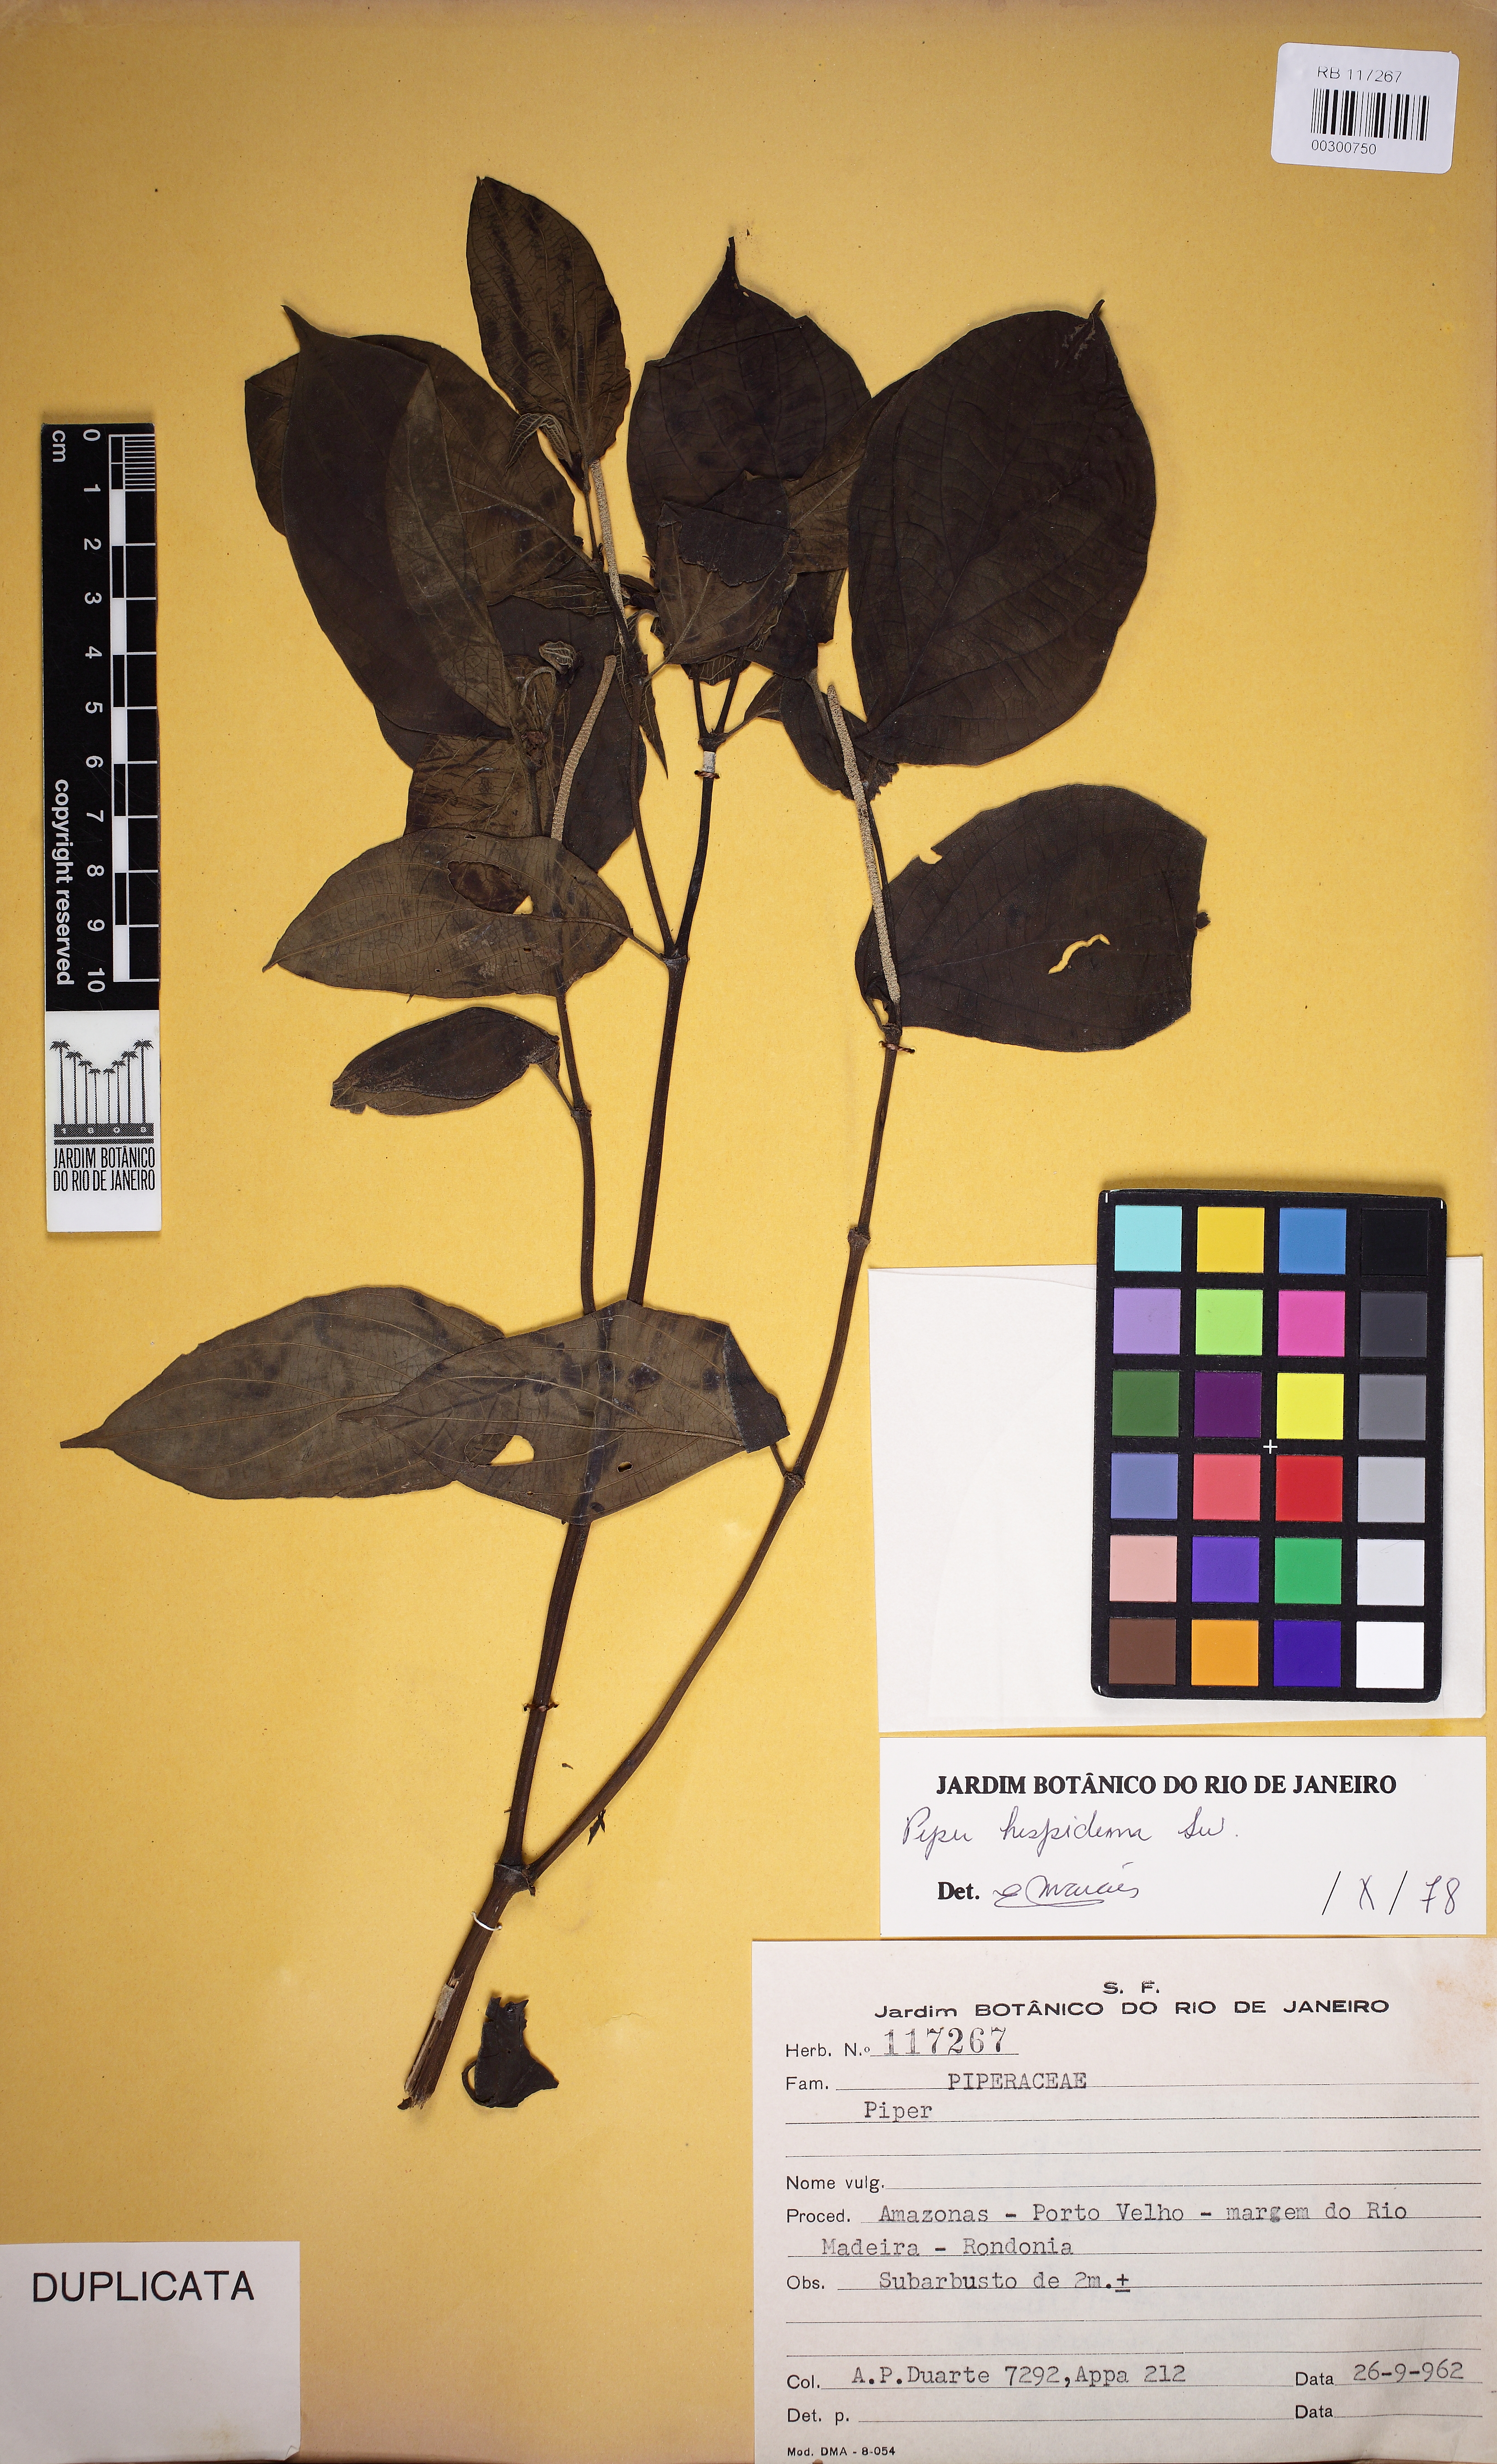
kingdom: Plantae
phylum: Tracheophyta
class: Magnoliopsida
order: Piperales
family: Piperaceae
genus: Piper
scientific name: Piper hispidum
